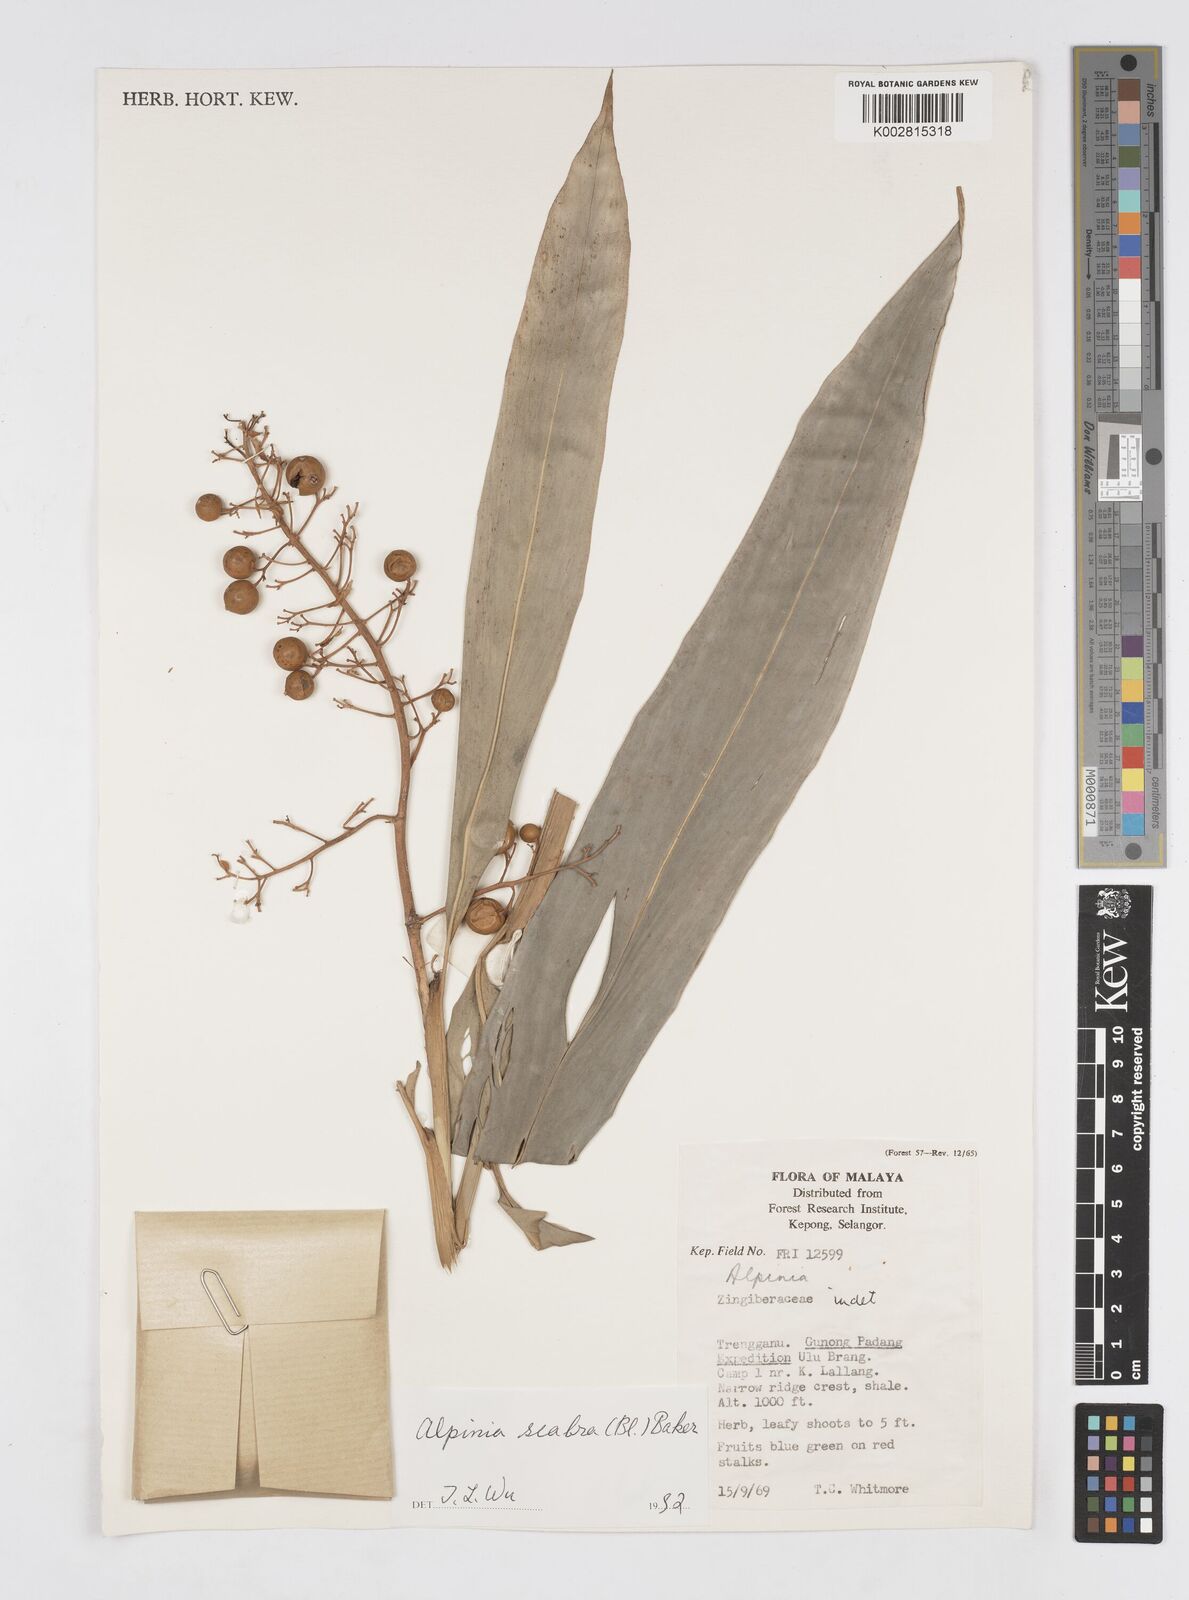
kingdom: Plantae
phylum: Tracheophyta
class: Liliopsida
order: Zingiberales
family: Zingiberaceae
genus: Alpinia
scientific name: Alpinia scabra
